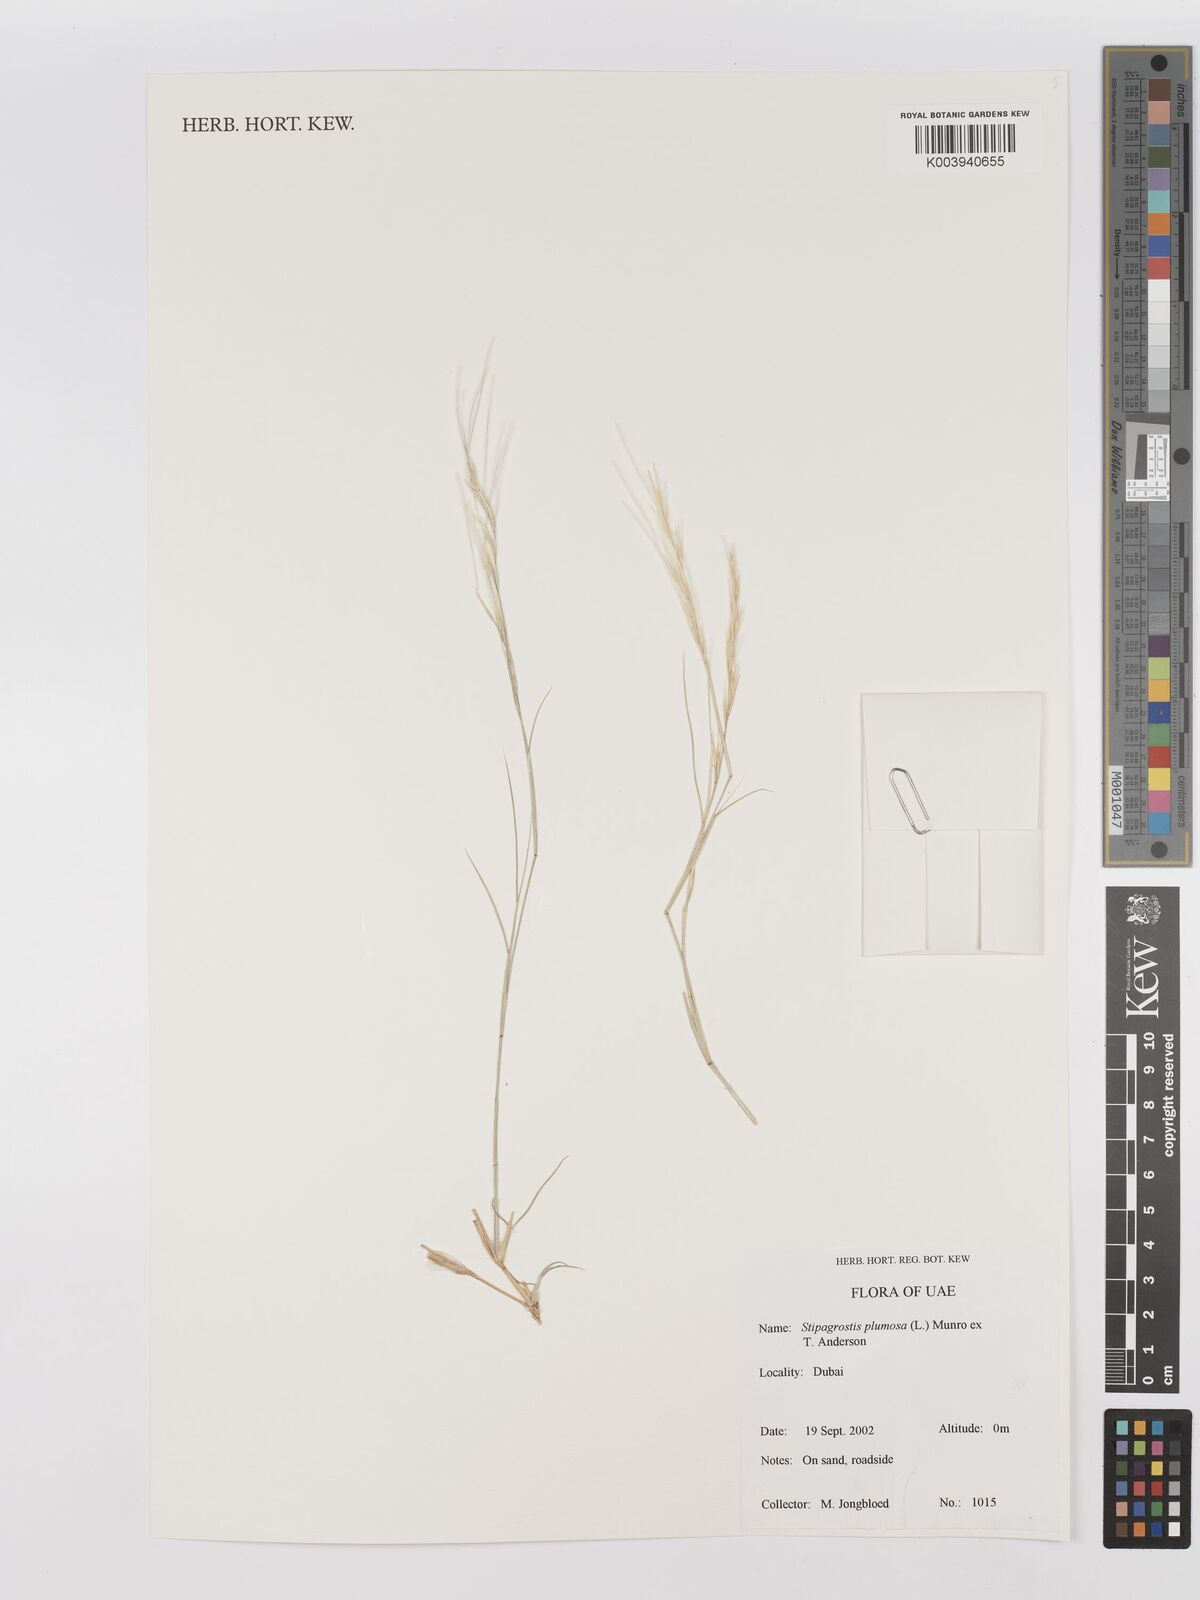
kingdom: Plantae
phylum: Tracheophyta
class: Liliopsida
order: Poales
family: Poaceae
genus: Stipagrostis
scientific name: Stipagrostis plumosa
